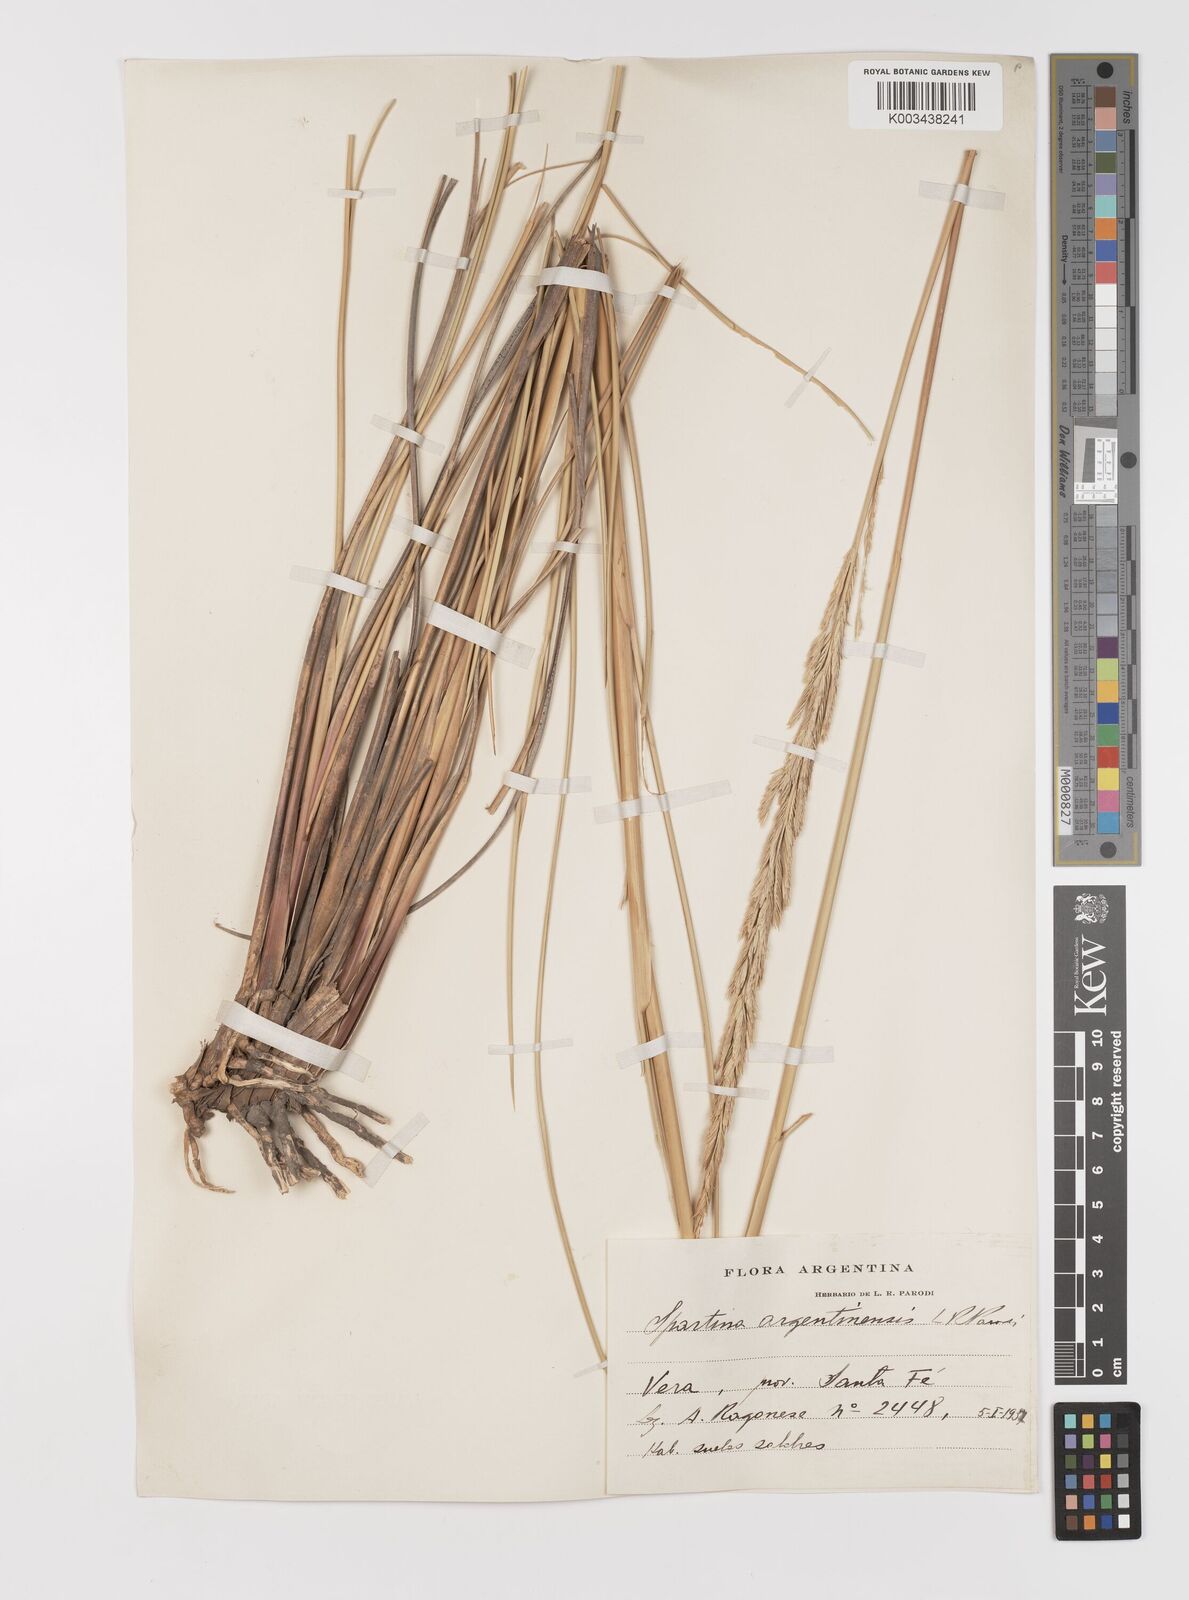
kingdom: Plantae
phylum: Tracheophyta
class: Liliopsida
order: Poales
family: Poaceae
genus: Sporobolus
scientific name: Sporobolus spartinae
